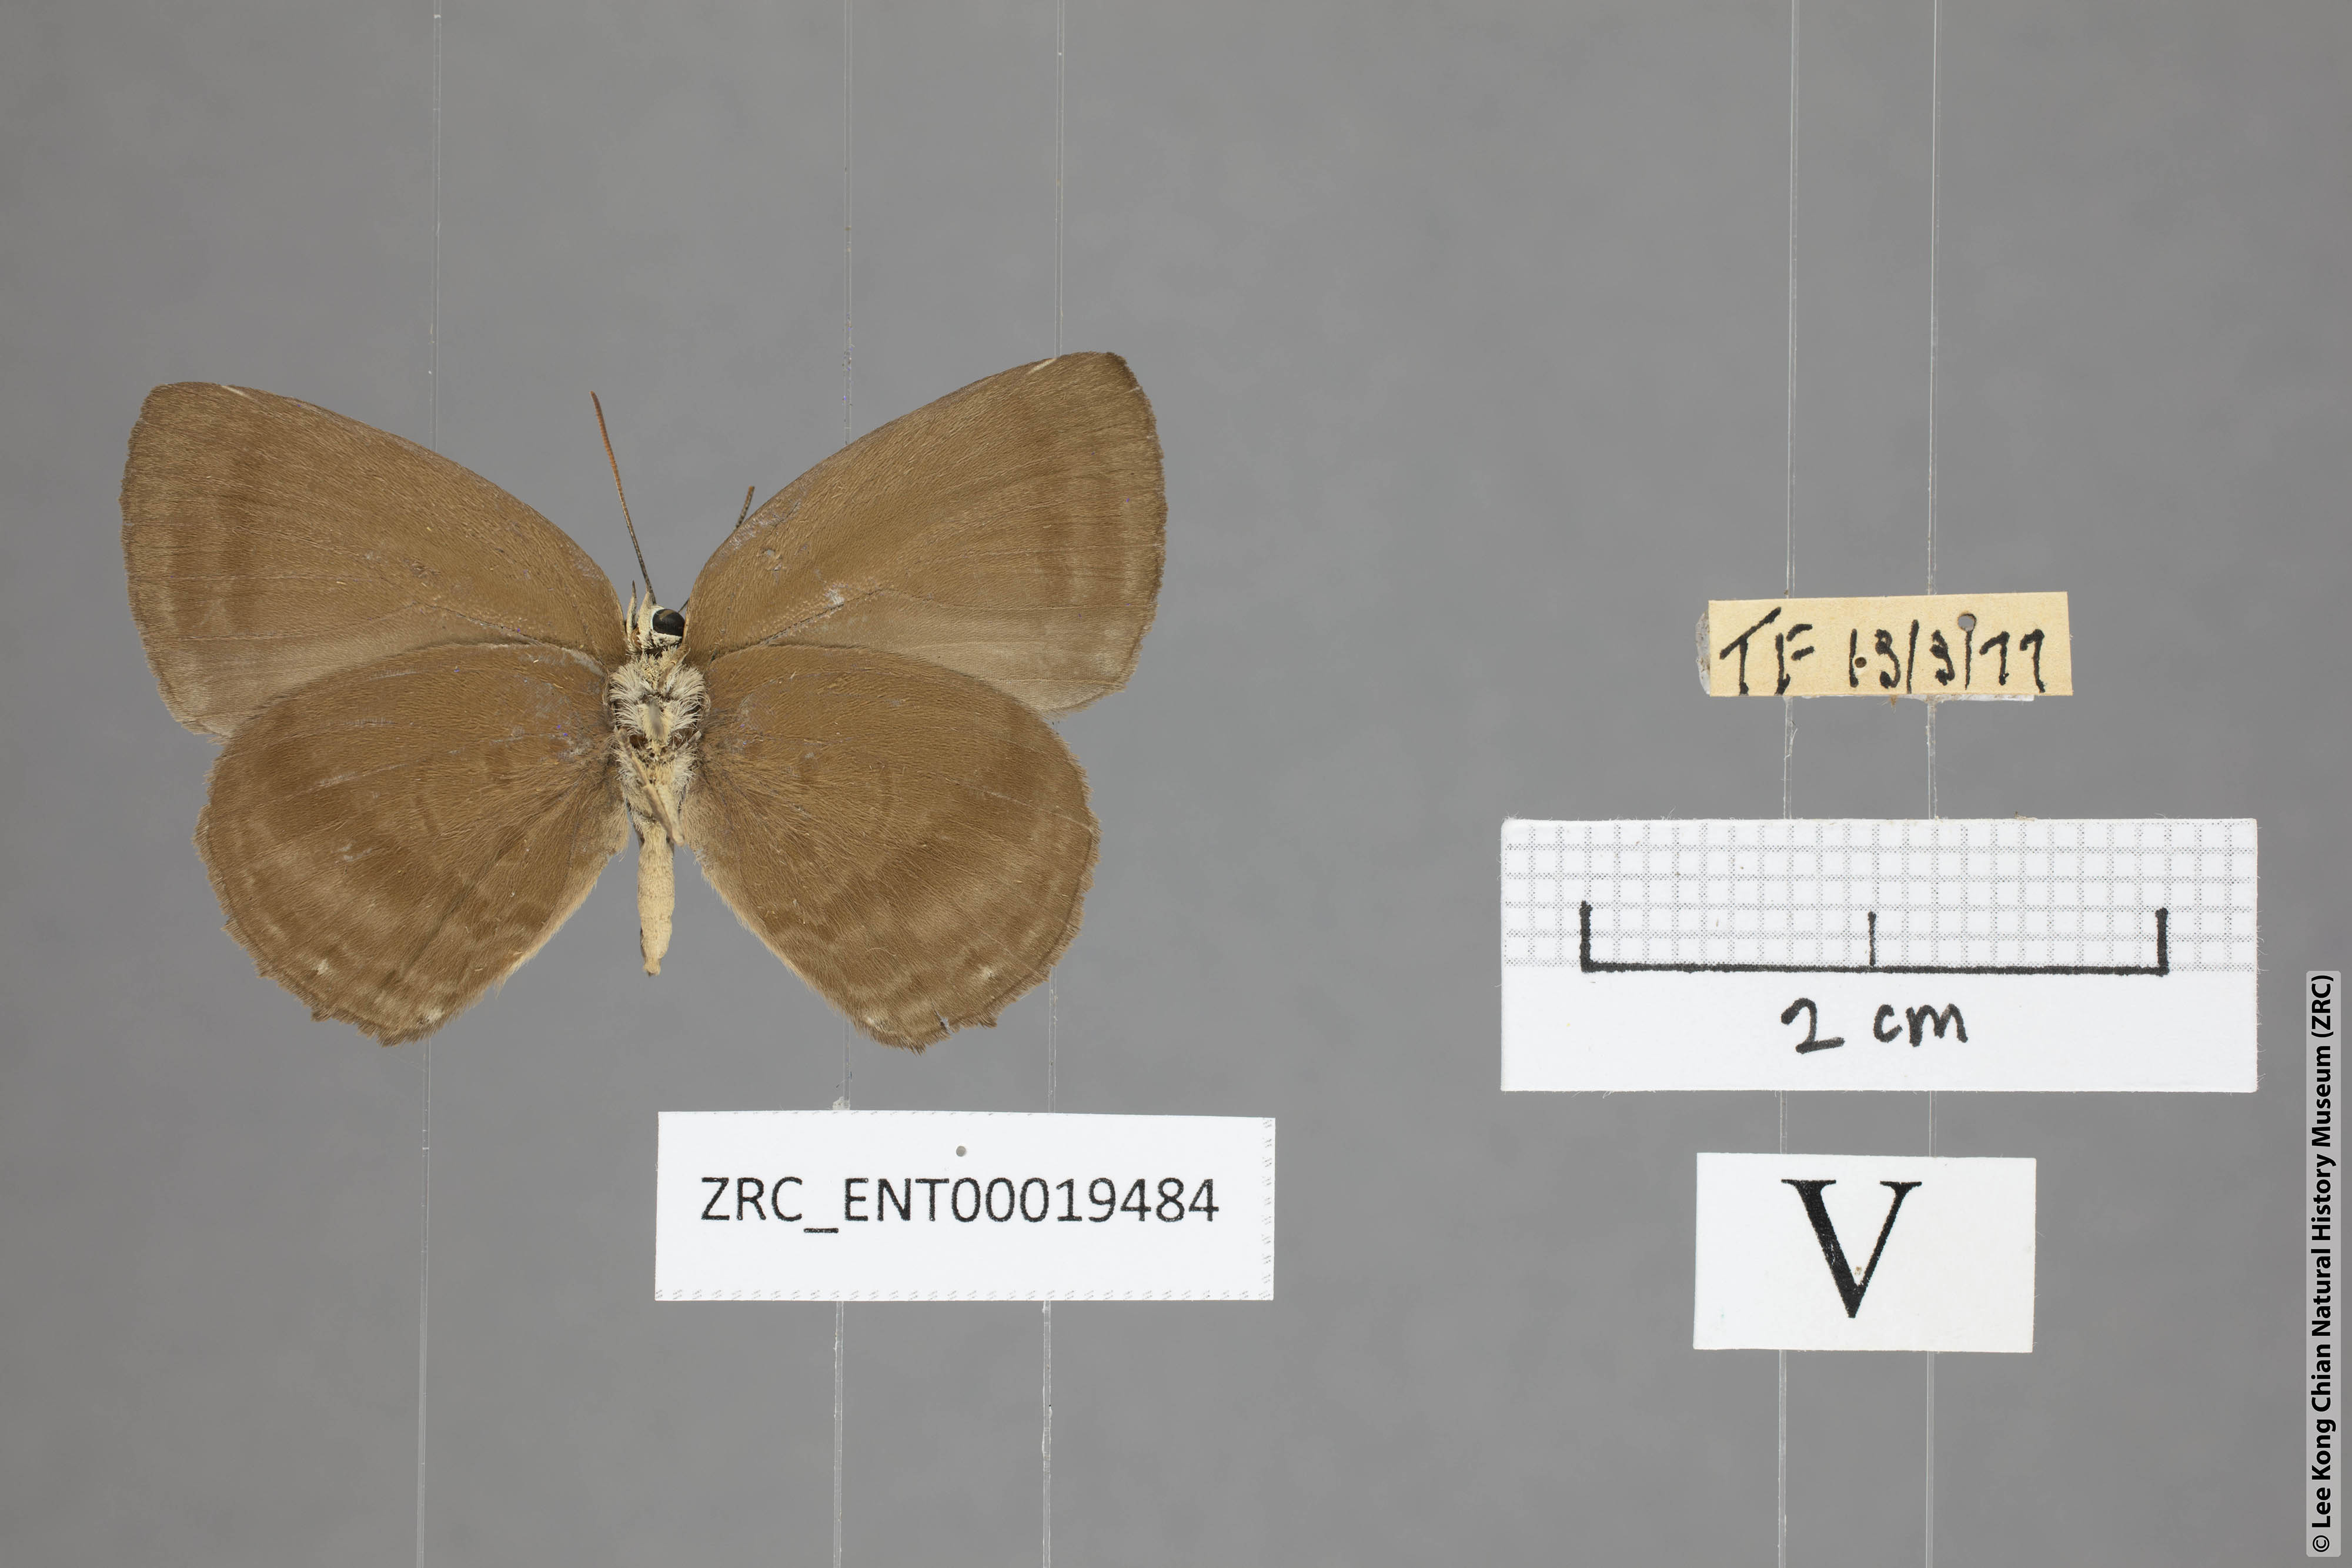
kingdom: Animalia
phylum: Arthropoda
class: Insecta
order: Lepidoptera
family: Lycaenidae
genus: Arhopala
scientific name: Arhopala fulla
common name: Spotless oakblue
